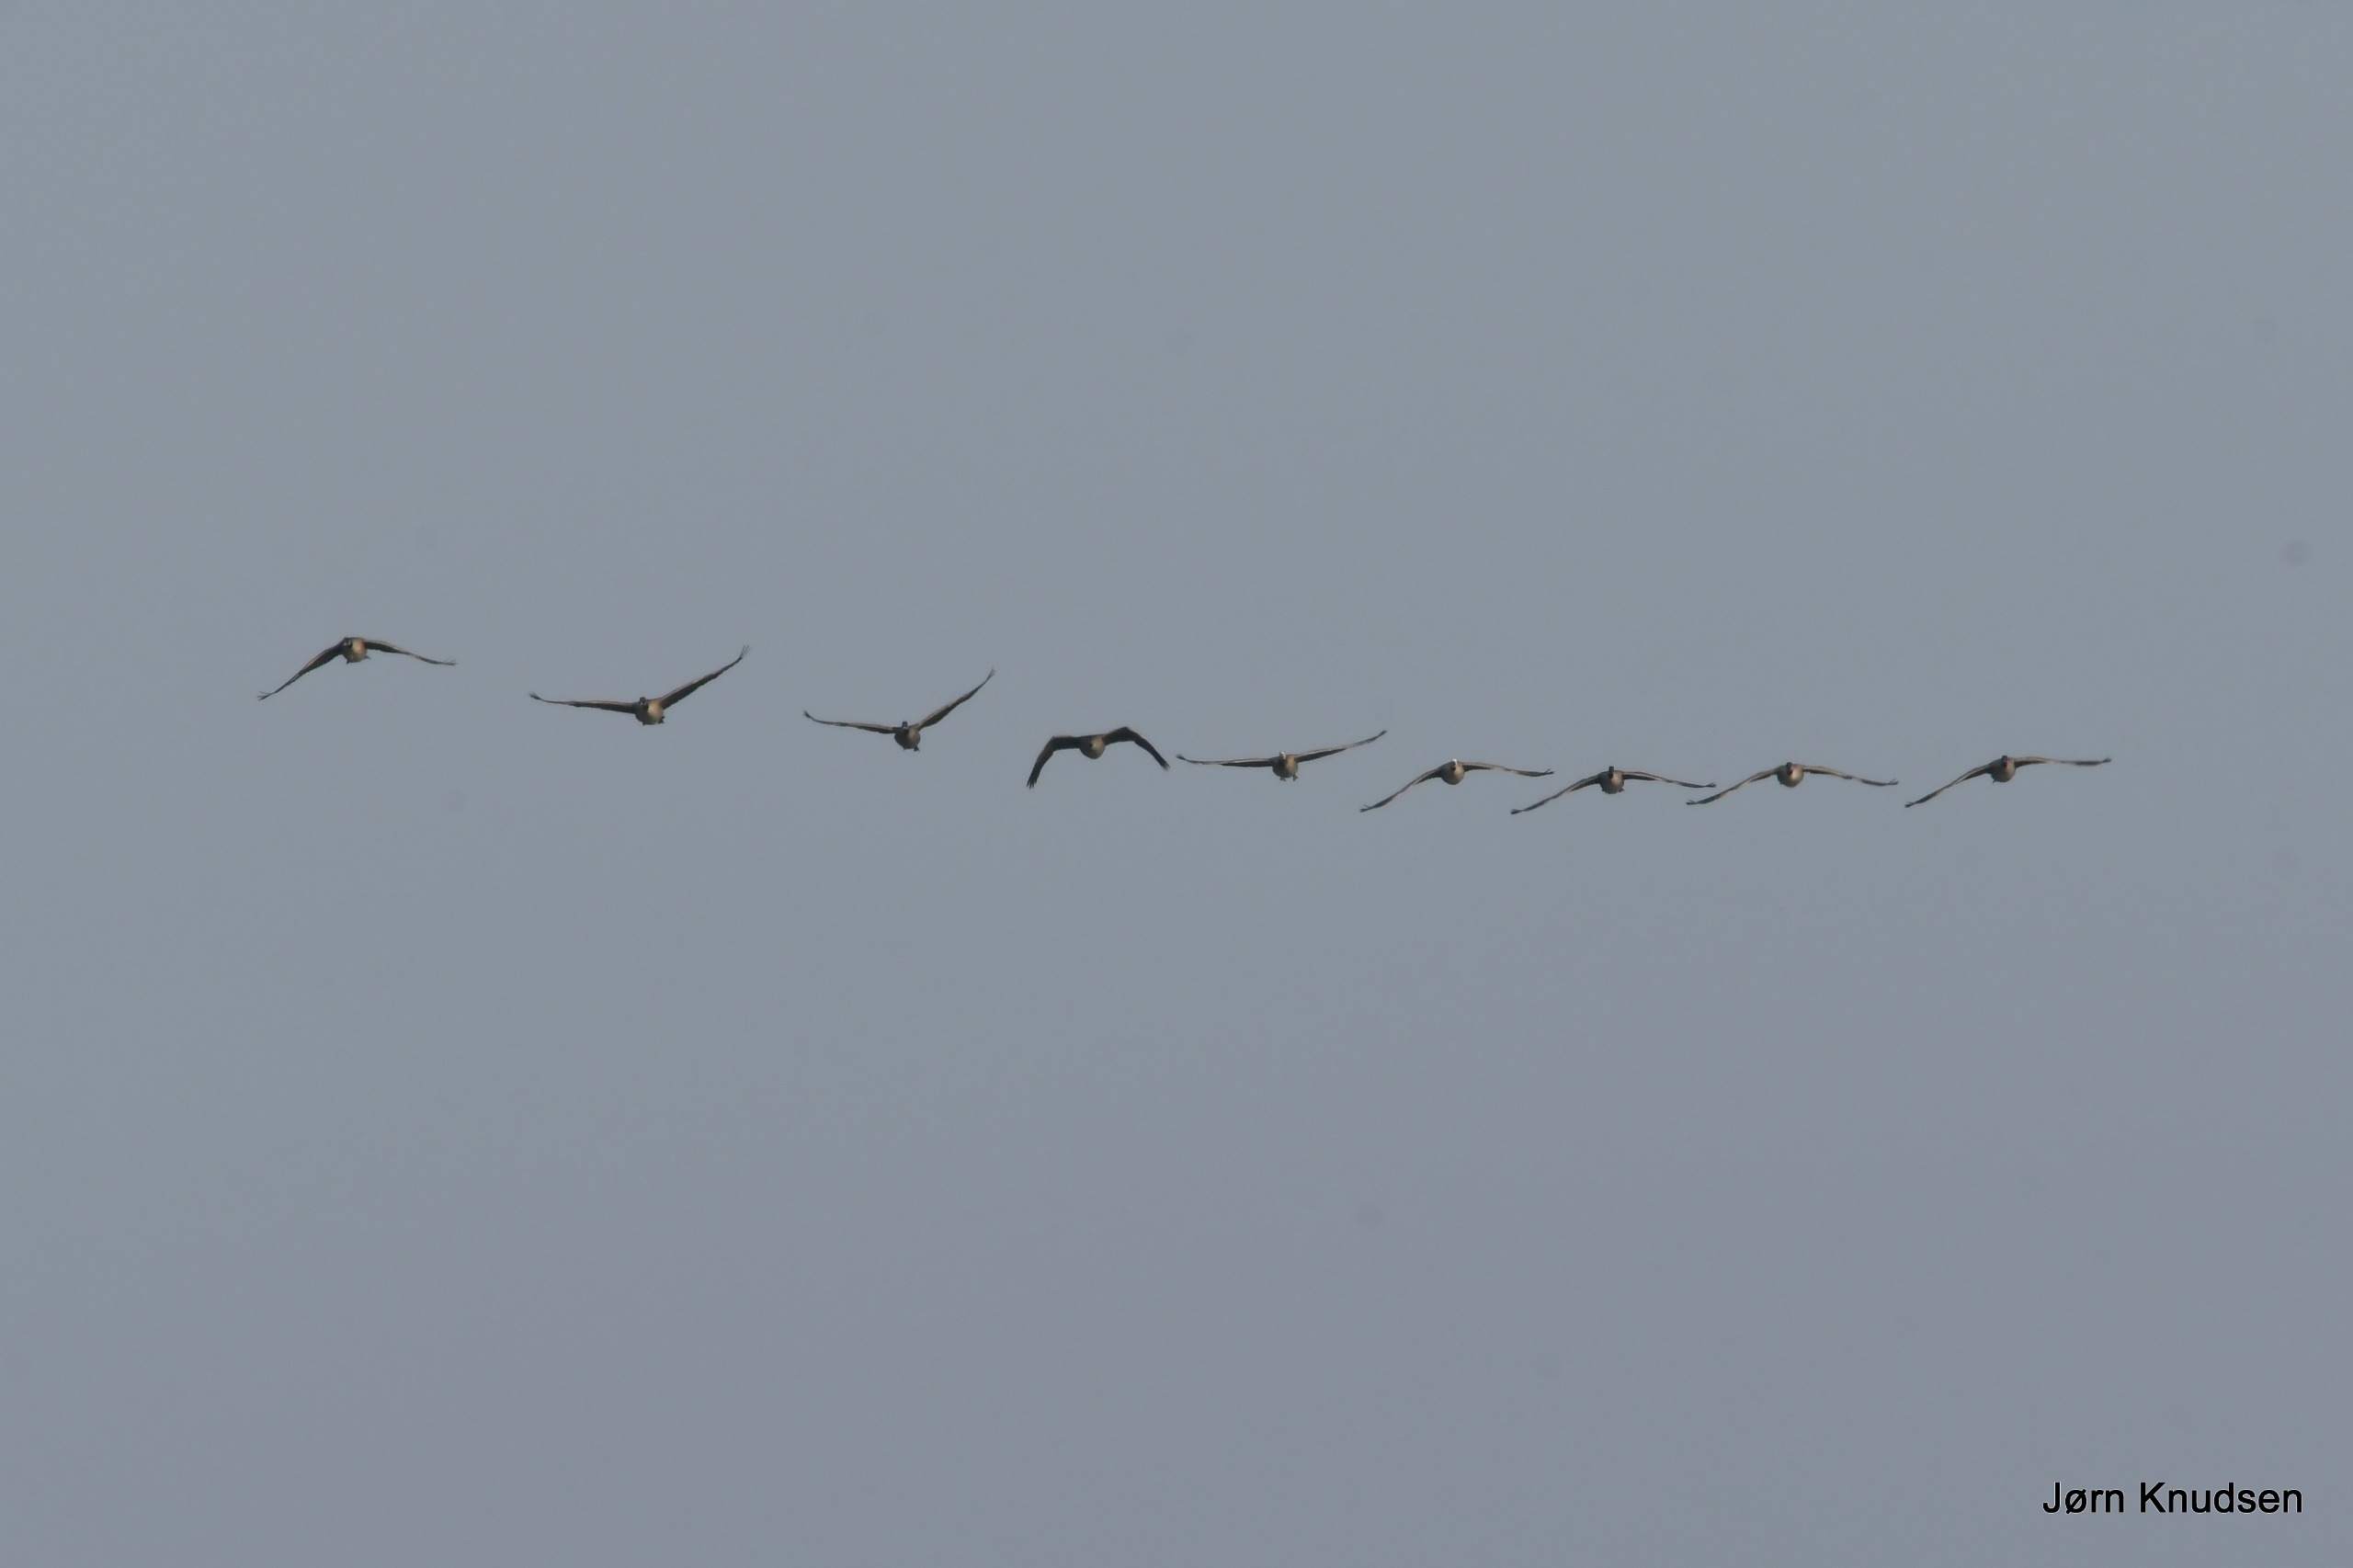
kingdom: Animalia
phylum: Chordata
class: Aves
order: Anseriformes
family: Anatidae
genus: Branta
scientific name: Branta canadensis
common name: Canadagås
